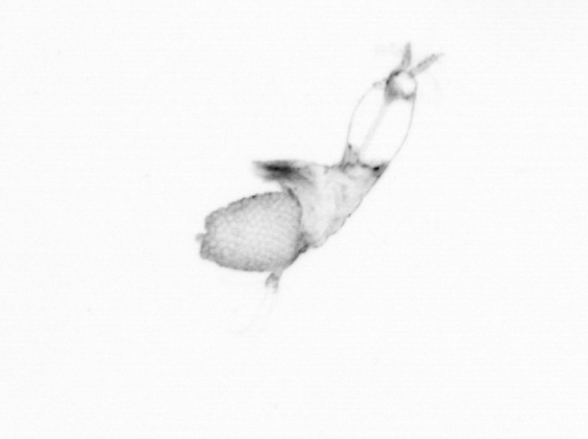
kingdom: Animalia
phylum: Arthropoda
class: Copepoda
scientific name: Copepoda
